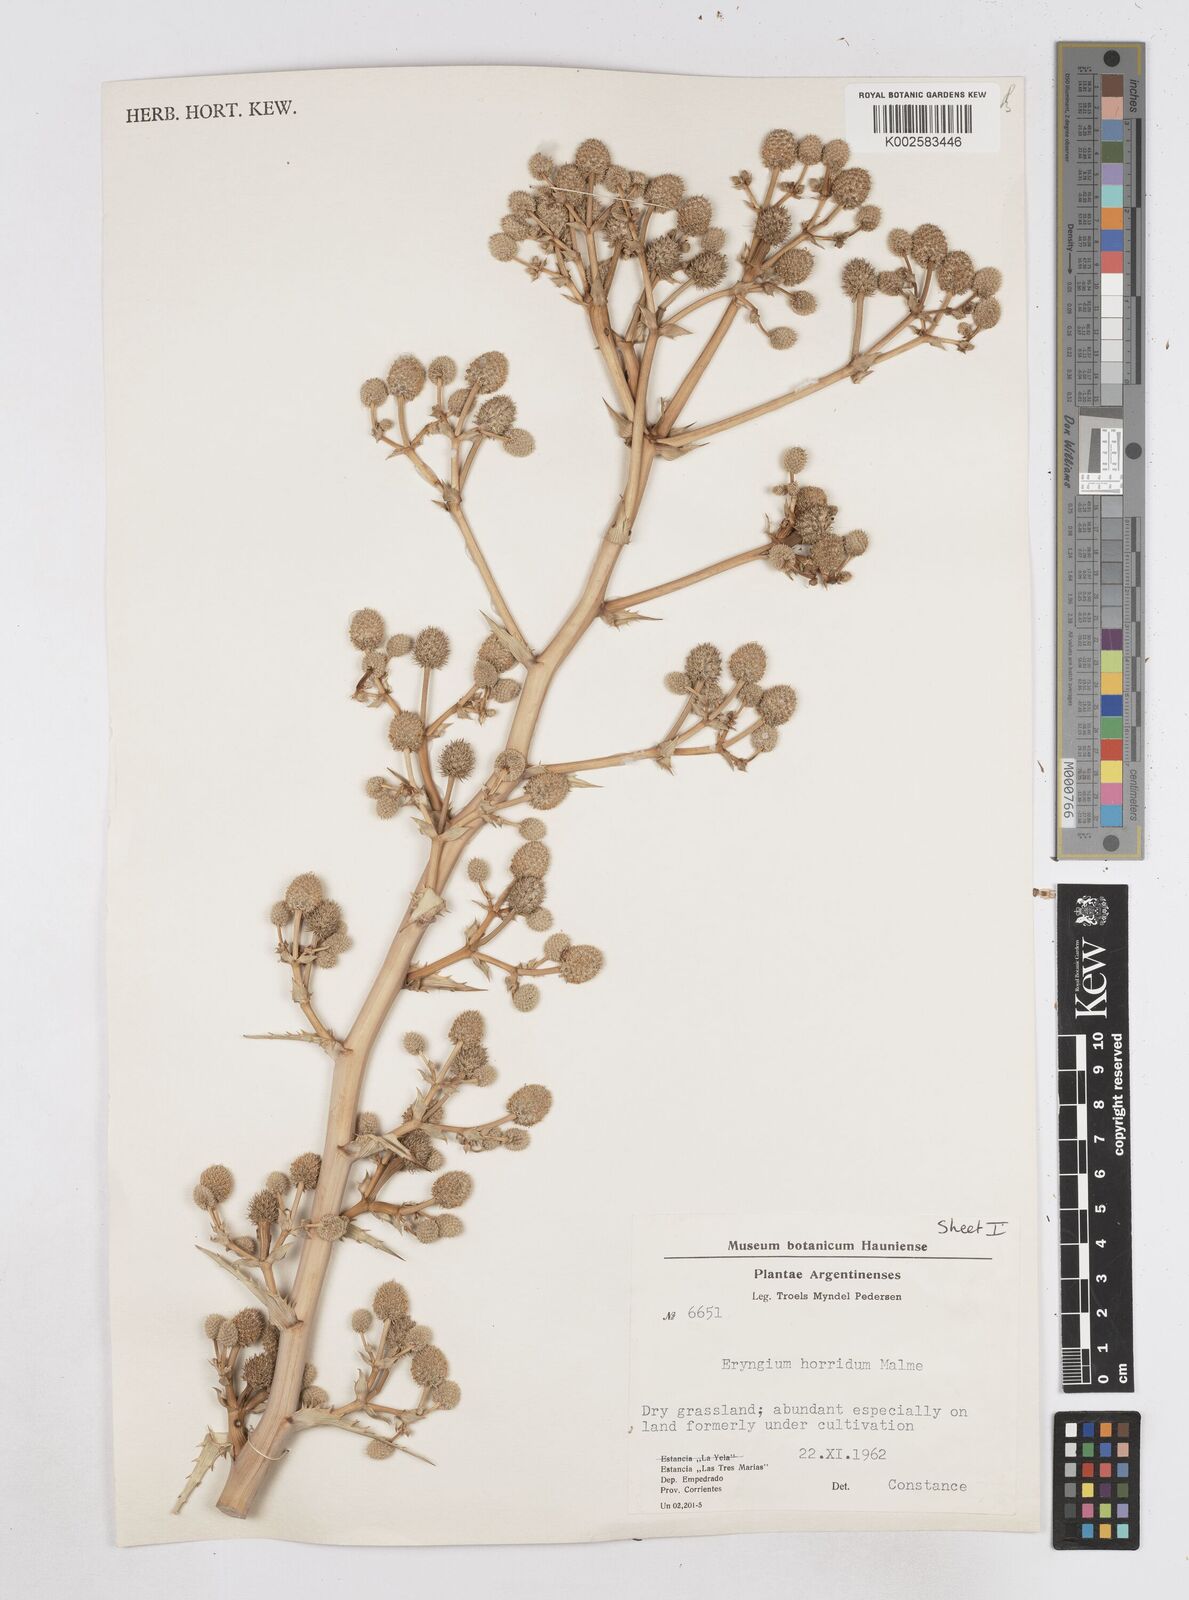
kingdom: Plantae
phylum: Tracheophyta
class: Magnoliopsida
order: Apiales
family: Apiaceae
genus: Eryngium
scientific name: Eryngium horridum
